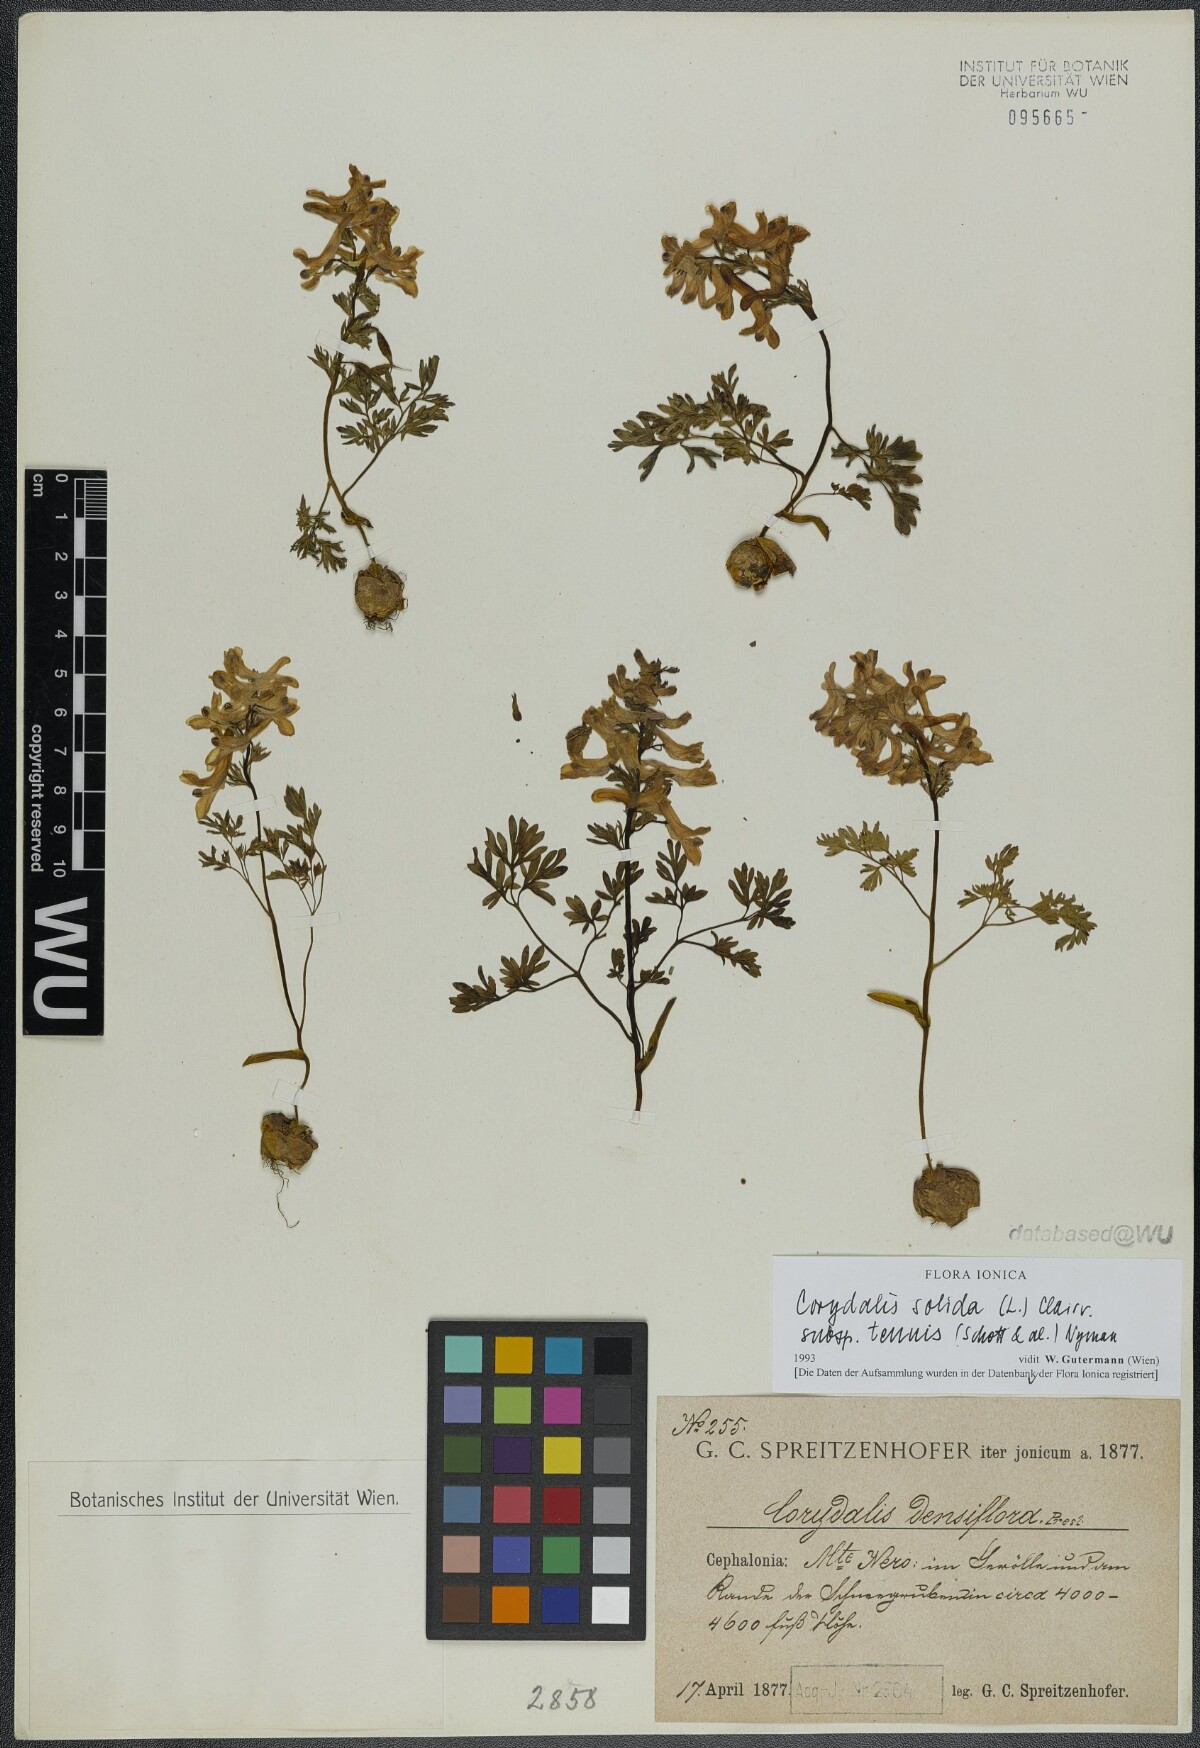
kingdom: Plantae
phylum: Tracheophyta
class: Magnoliopsida
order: Ranunculales
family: Papaveraceae
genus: Corydalis
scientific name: Corydalis solida
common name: Bird-in-a-bush
